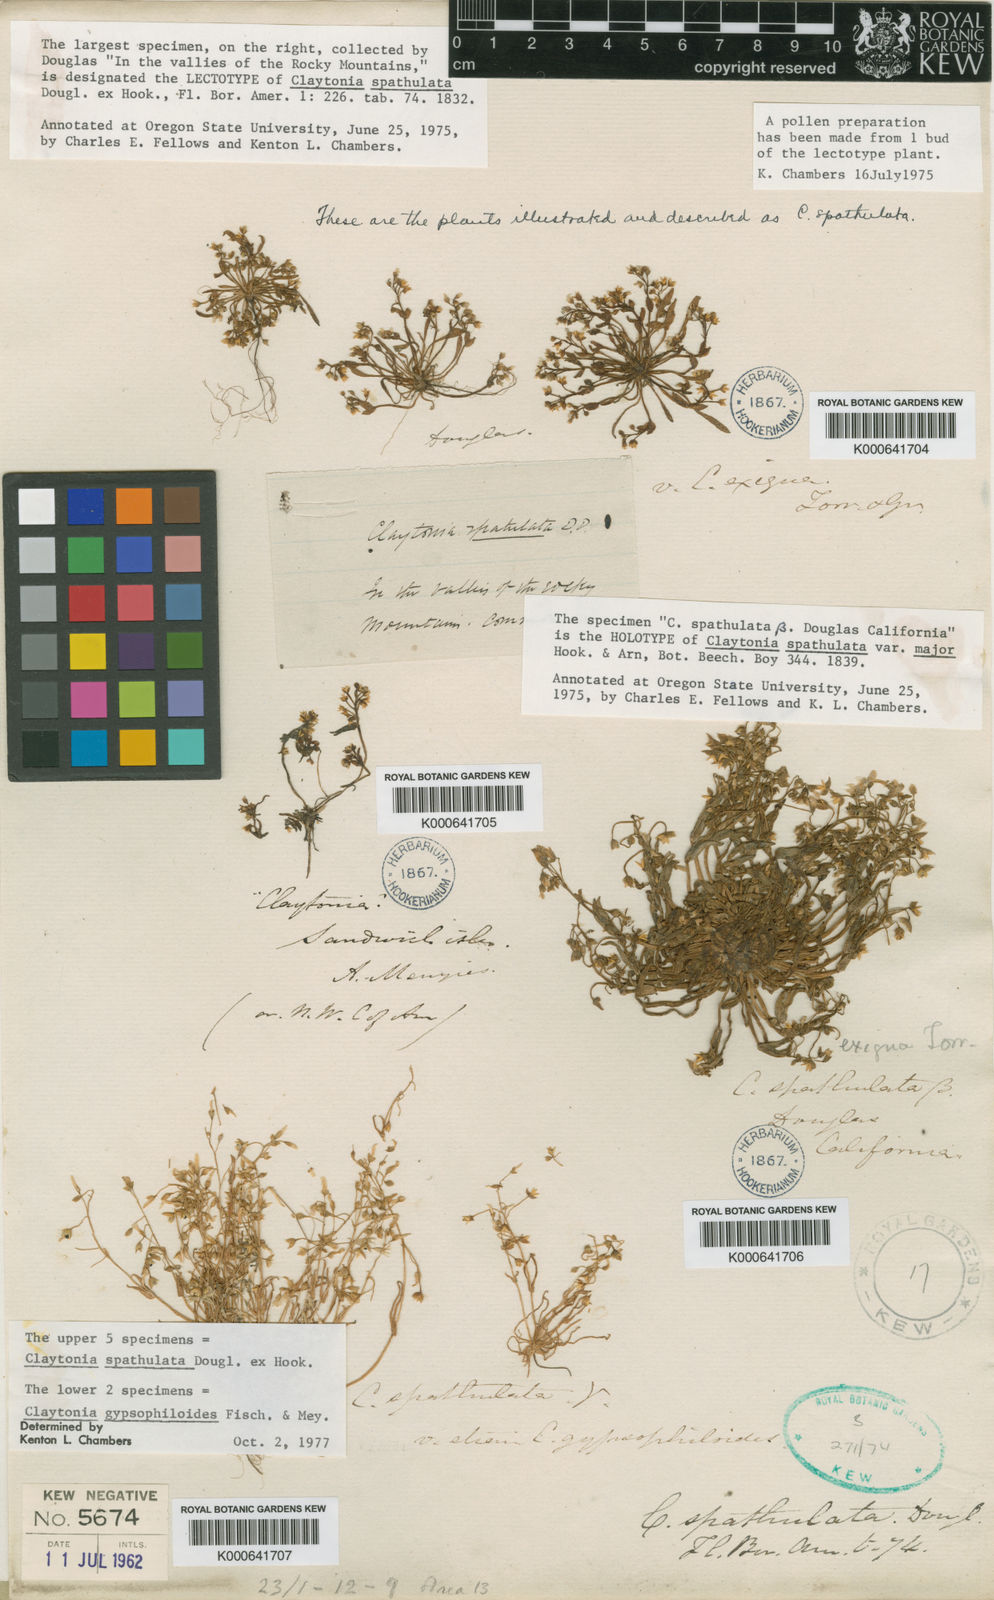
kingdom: Plantae
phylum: Tracheophyta
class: Magnoliopsida
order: Caryophyllales
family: Montiaceae
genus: Claytonia
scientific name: Claytonia exigua
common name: Pale spring beauty
